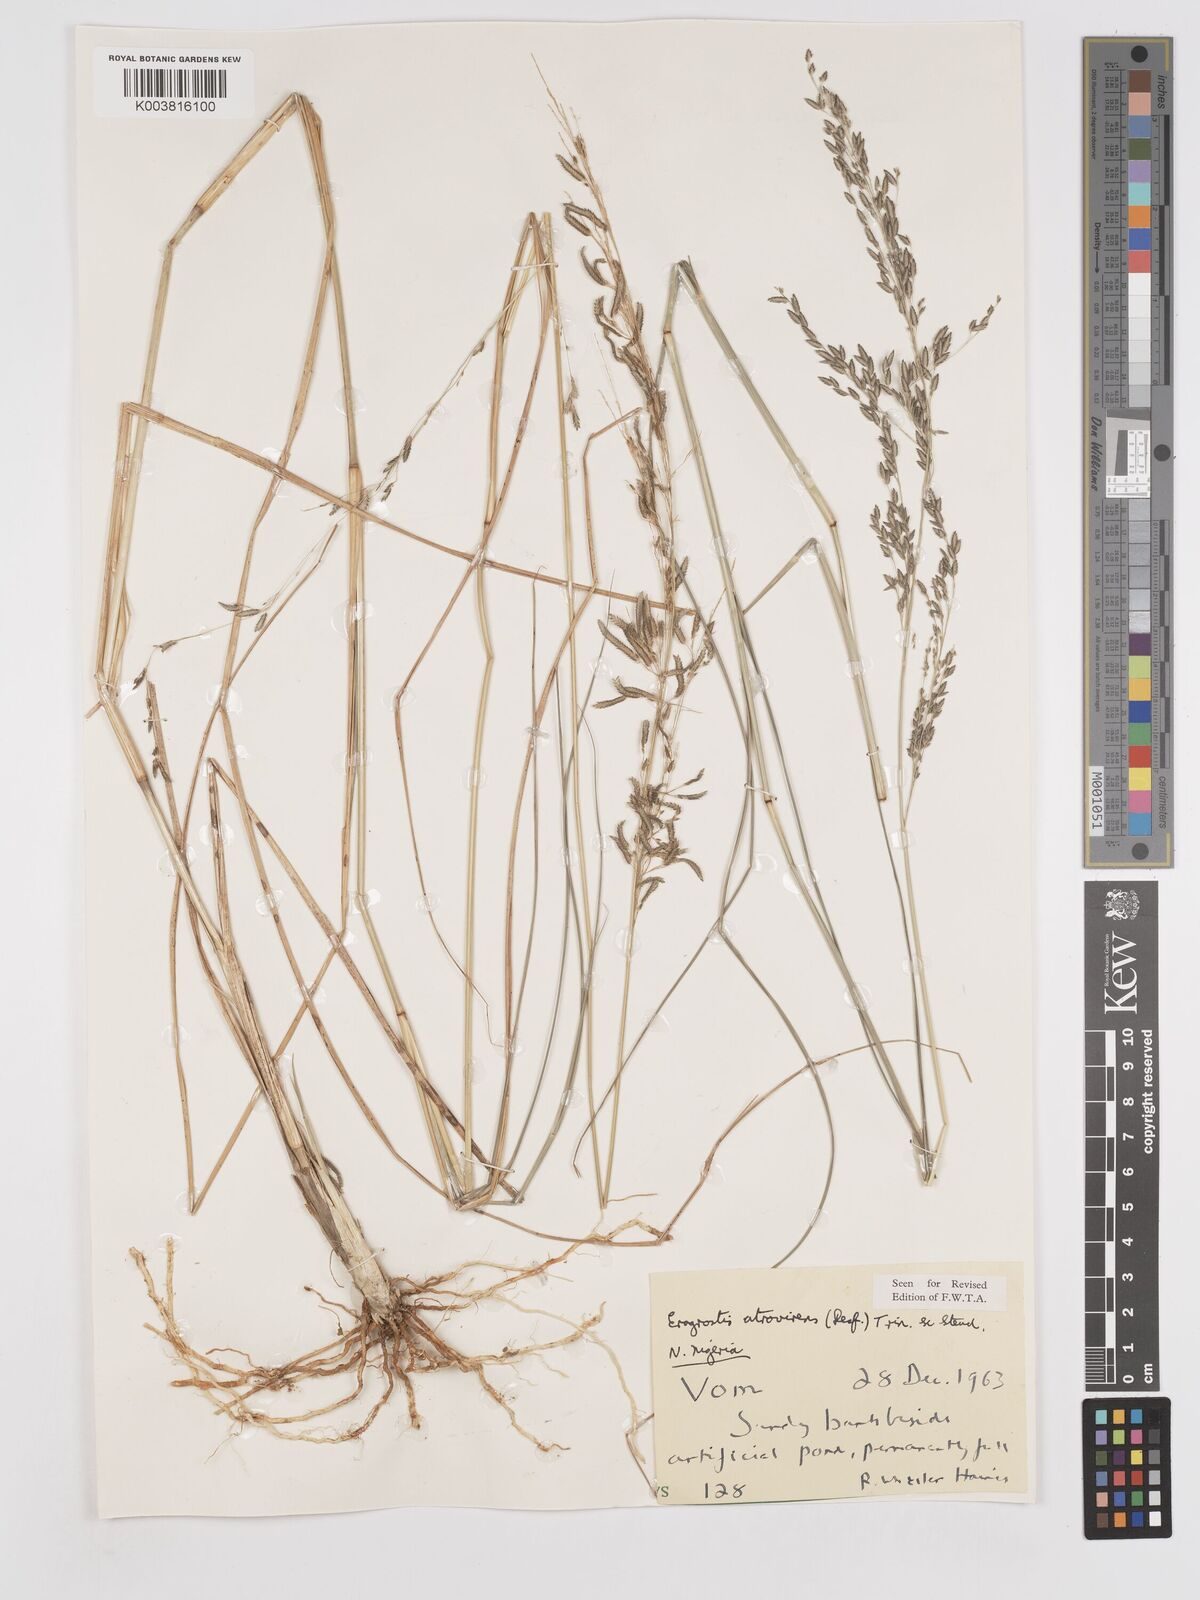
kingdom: Plantae
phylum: Tracheophyta
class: Liliopsida
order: Poales
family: Poaceae
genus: Eragrostis
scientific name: Eragrostis atrovirens
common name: Thalia lovegrass
